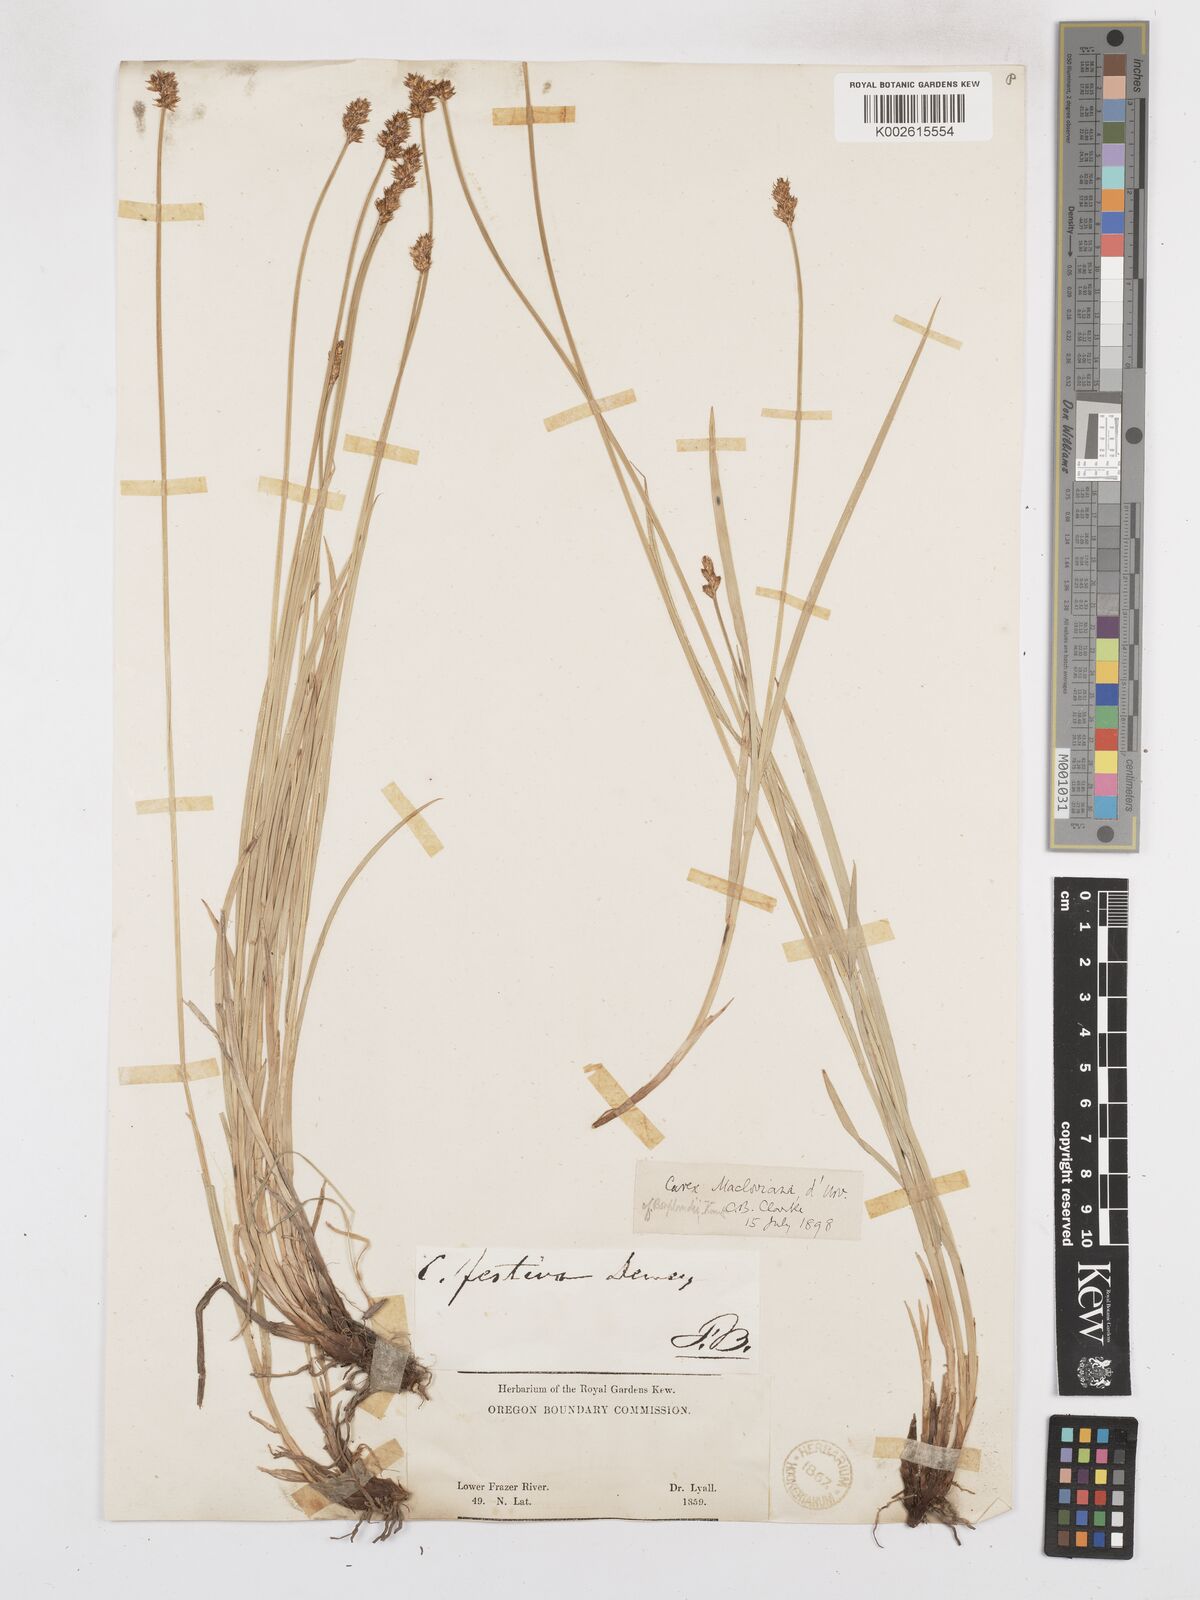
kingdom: Plantae
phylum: Tracheophyta
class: Liliopsida
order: Poales
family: Cyperaceae
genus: Carex
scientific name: Carex macloviana
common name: Falkland island sedge
